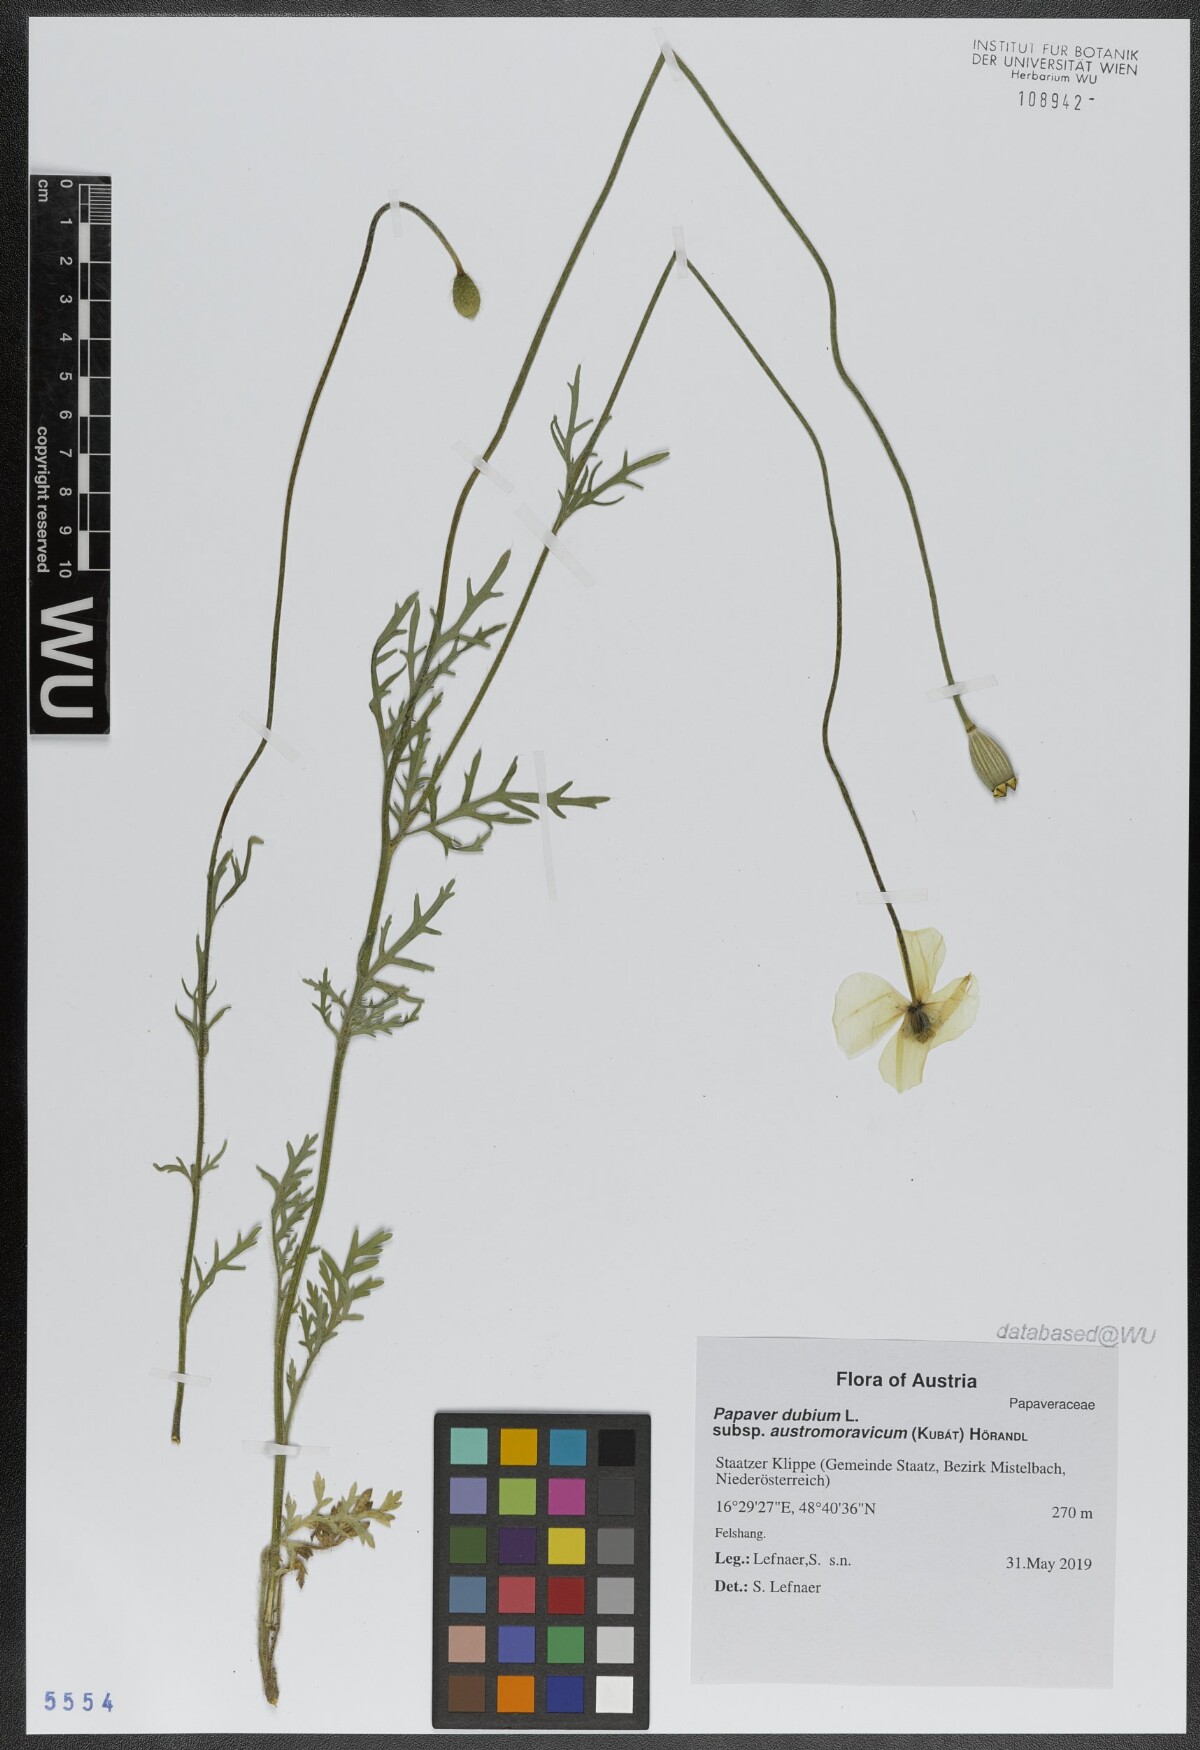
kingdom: Plantae
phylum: Tracheophyta
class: Magnoliopsida
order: Ranunculales
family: Papaveraceae
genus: Papaver
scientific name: Papaver dubium
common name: Long-headed poppy
